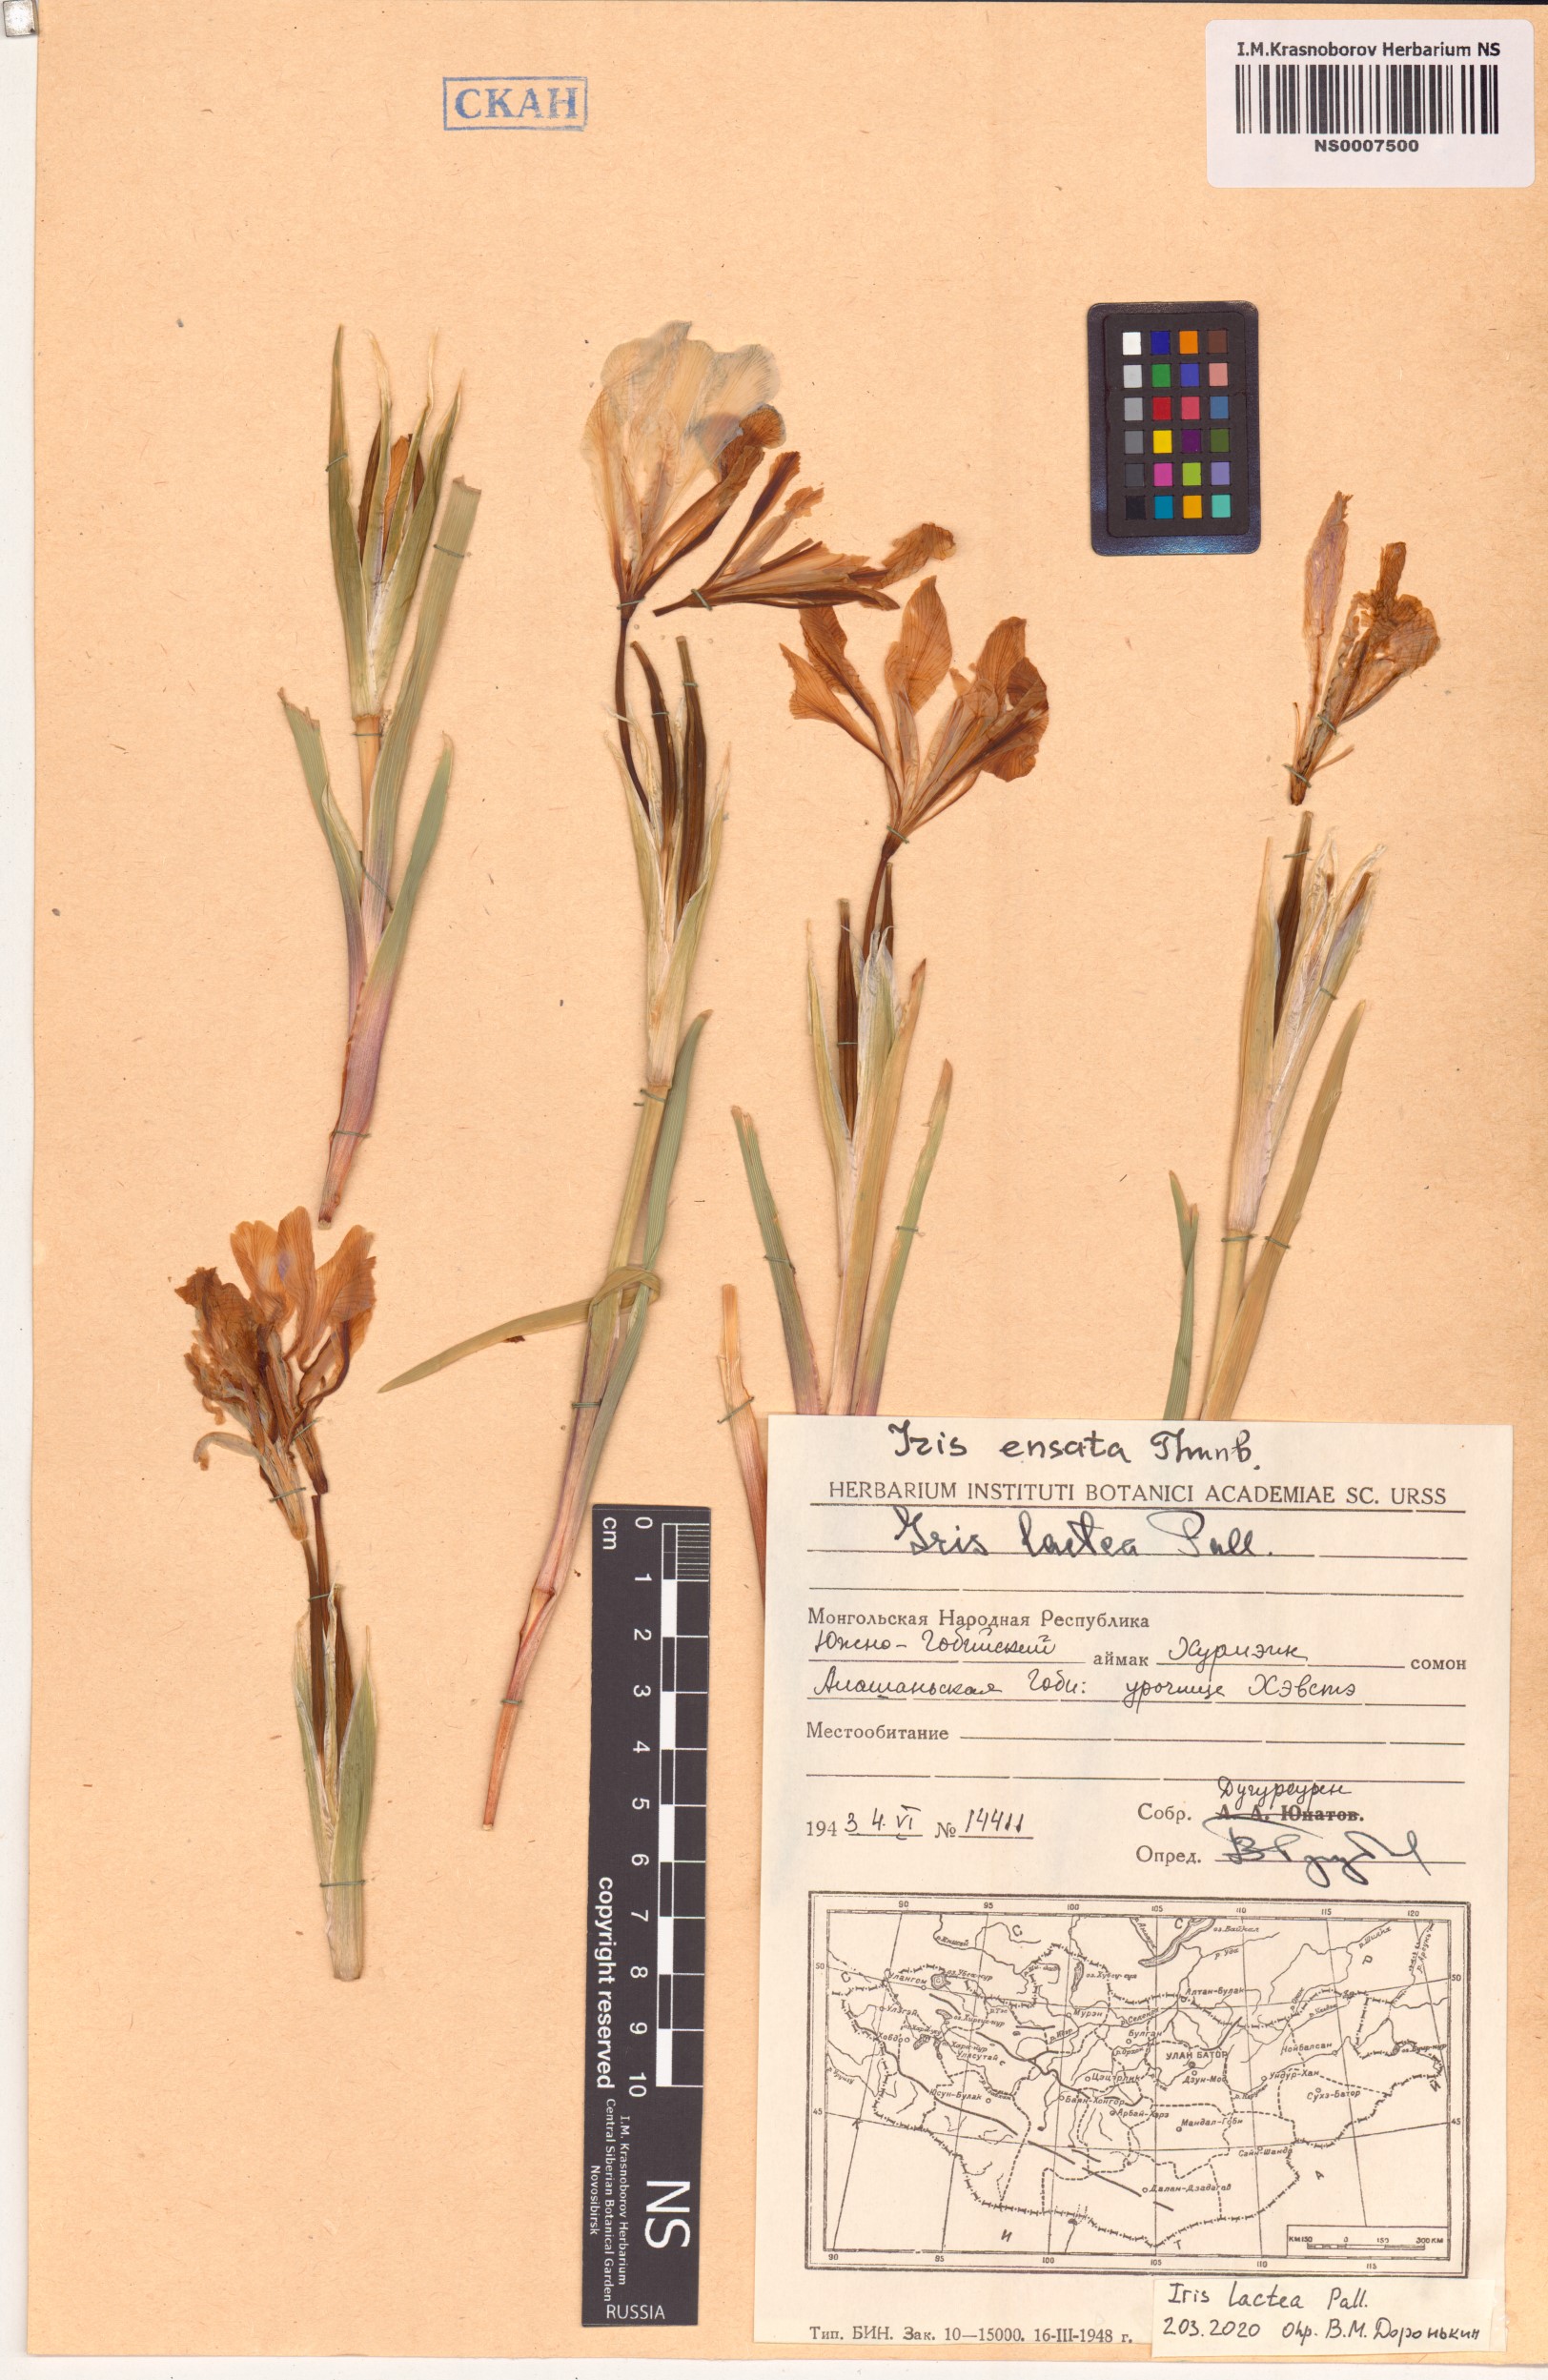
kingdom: Plantae
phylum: Tracheophyta
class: Liliopsida
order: Asparagales
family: Iridaceae
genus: Iris
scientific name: Iris lactea
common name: White-flower chinese iris
